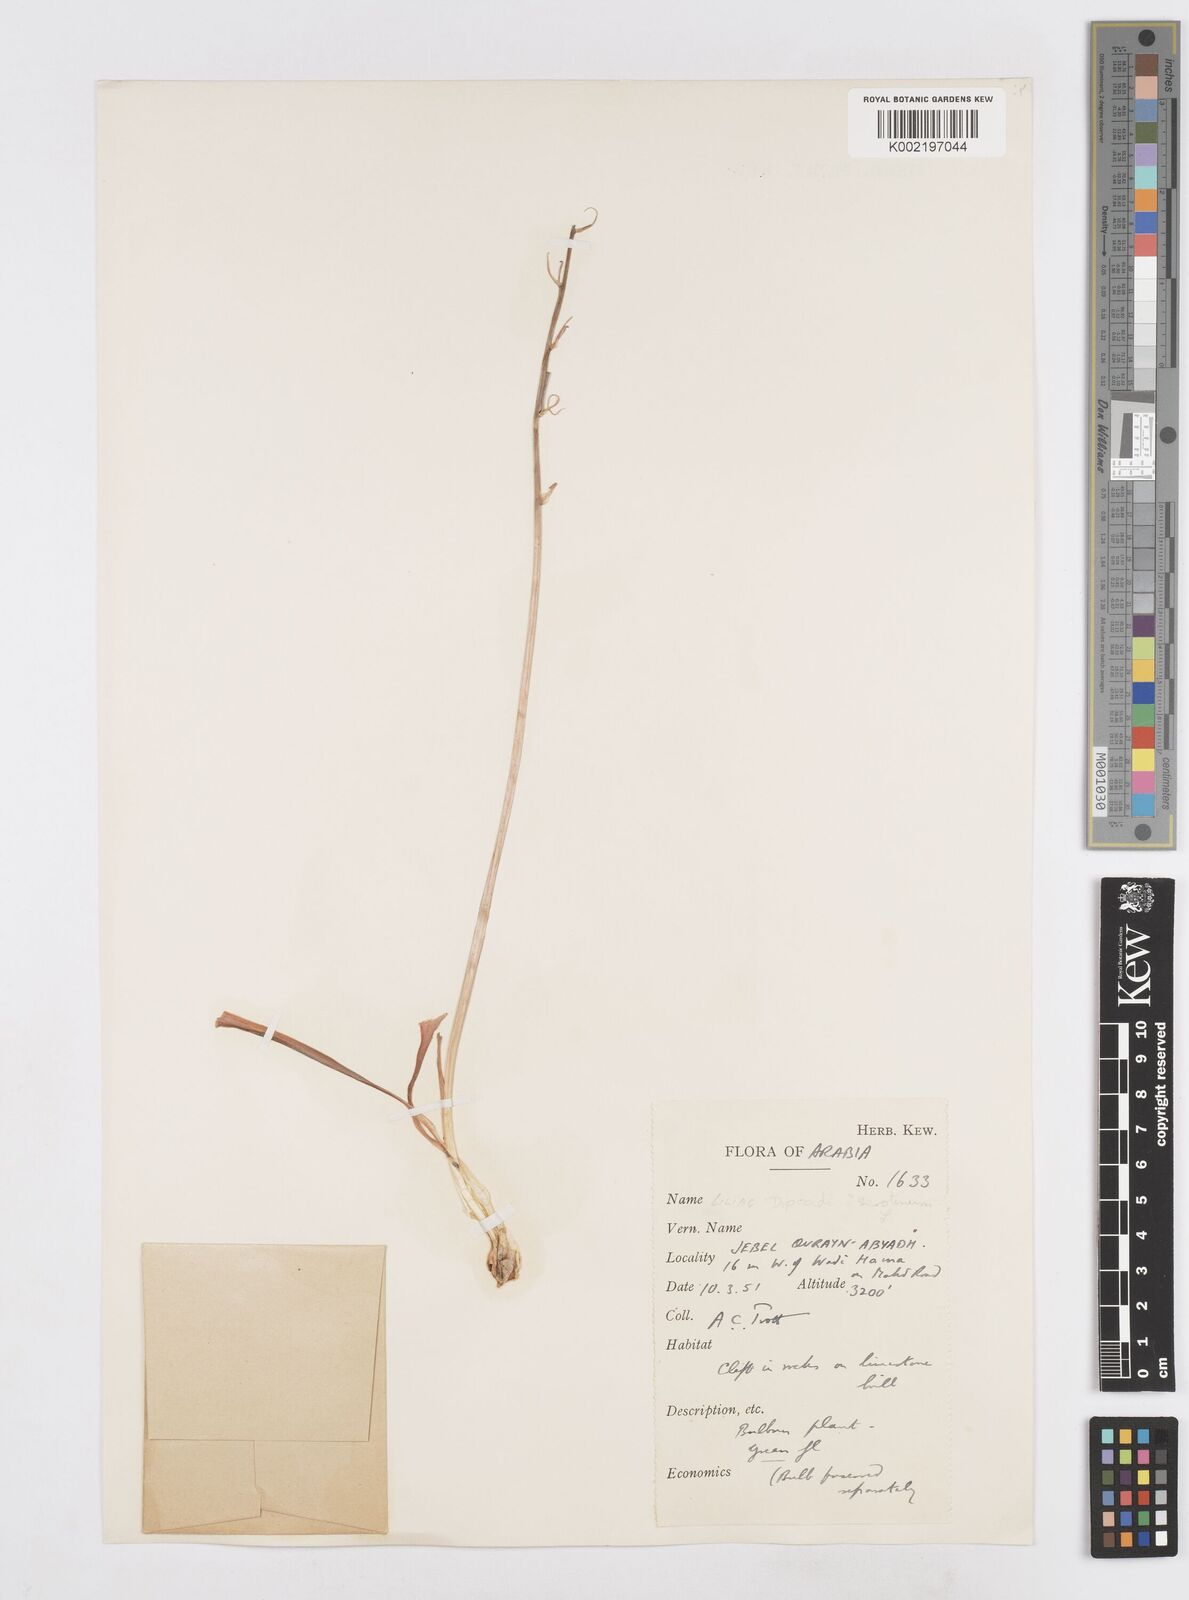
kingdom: Plantae
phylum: Tracheophyta
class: Liliopsida
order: Asparagales
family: Asparagaceae
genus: Dipcadi
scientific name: Dipcadi serotinum
